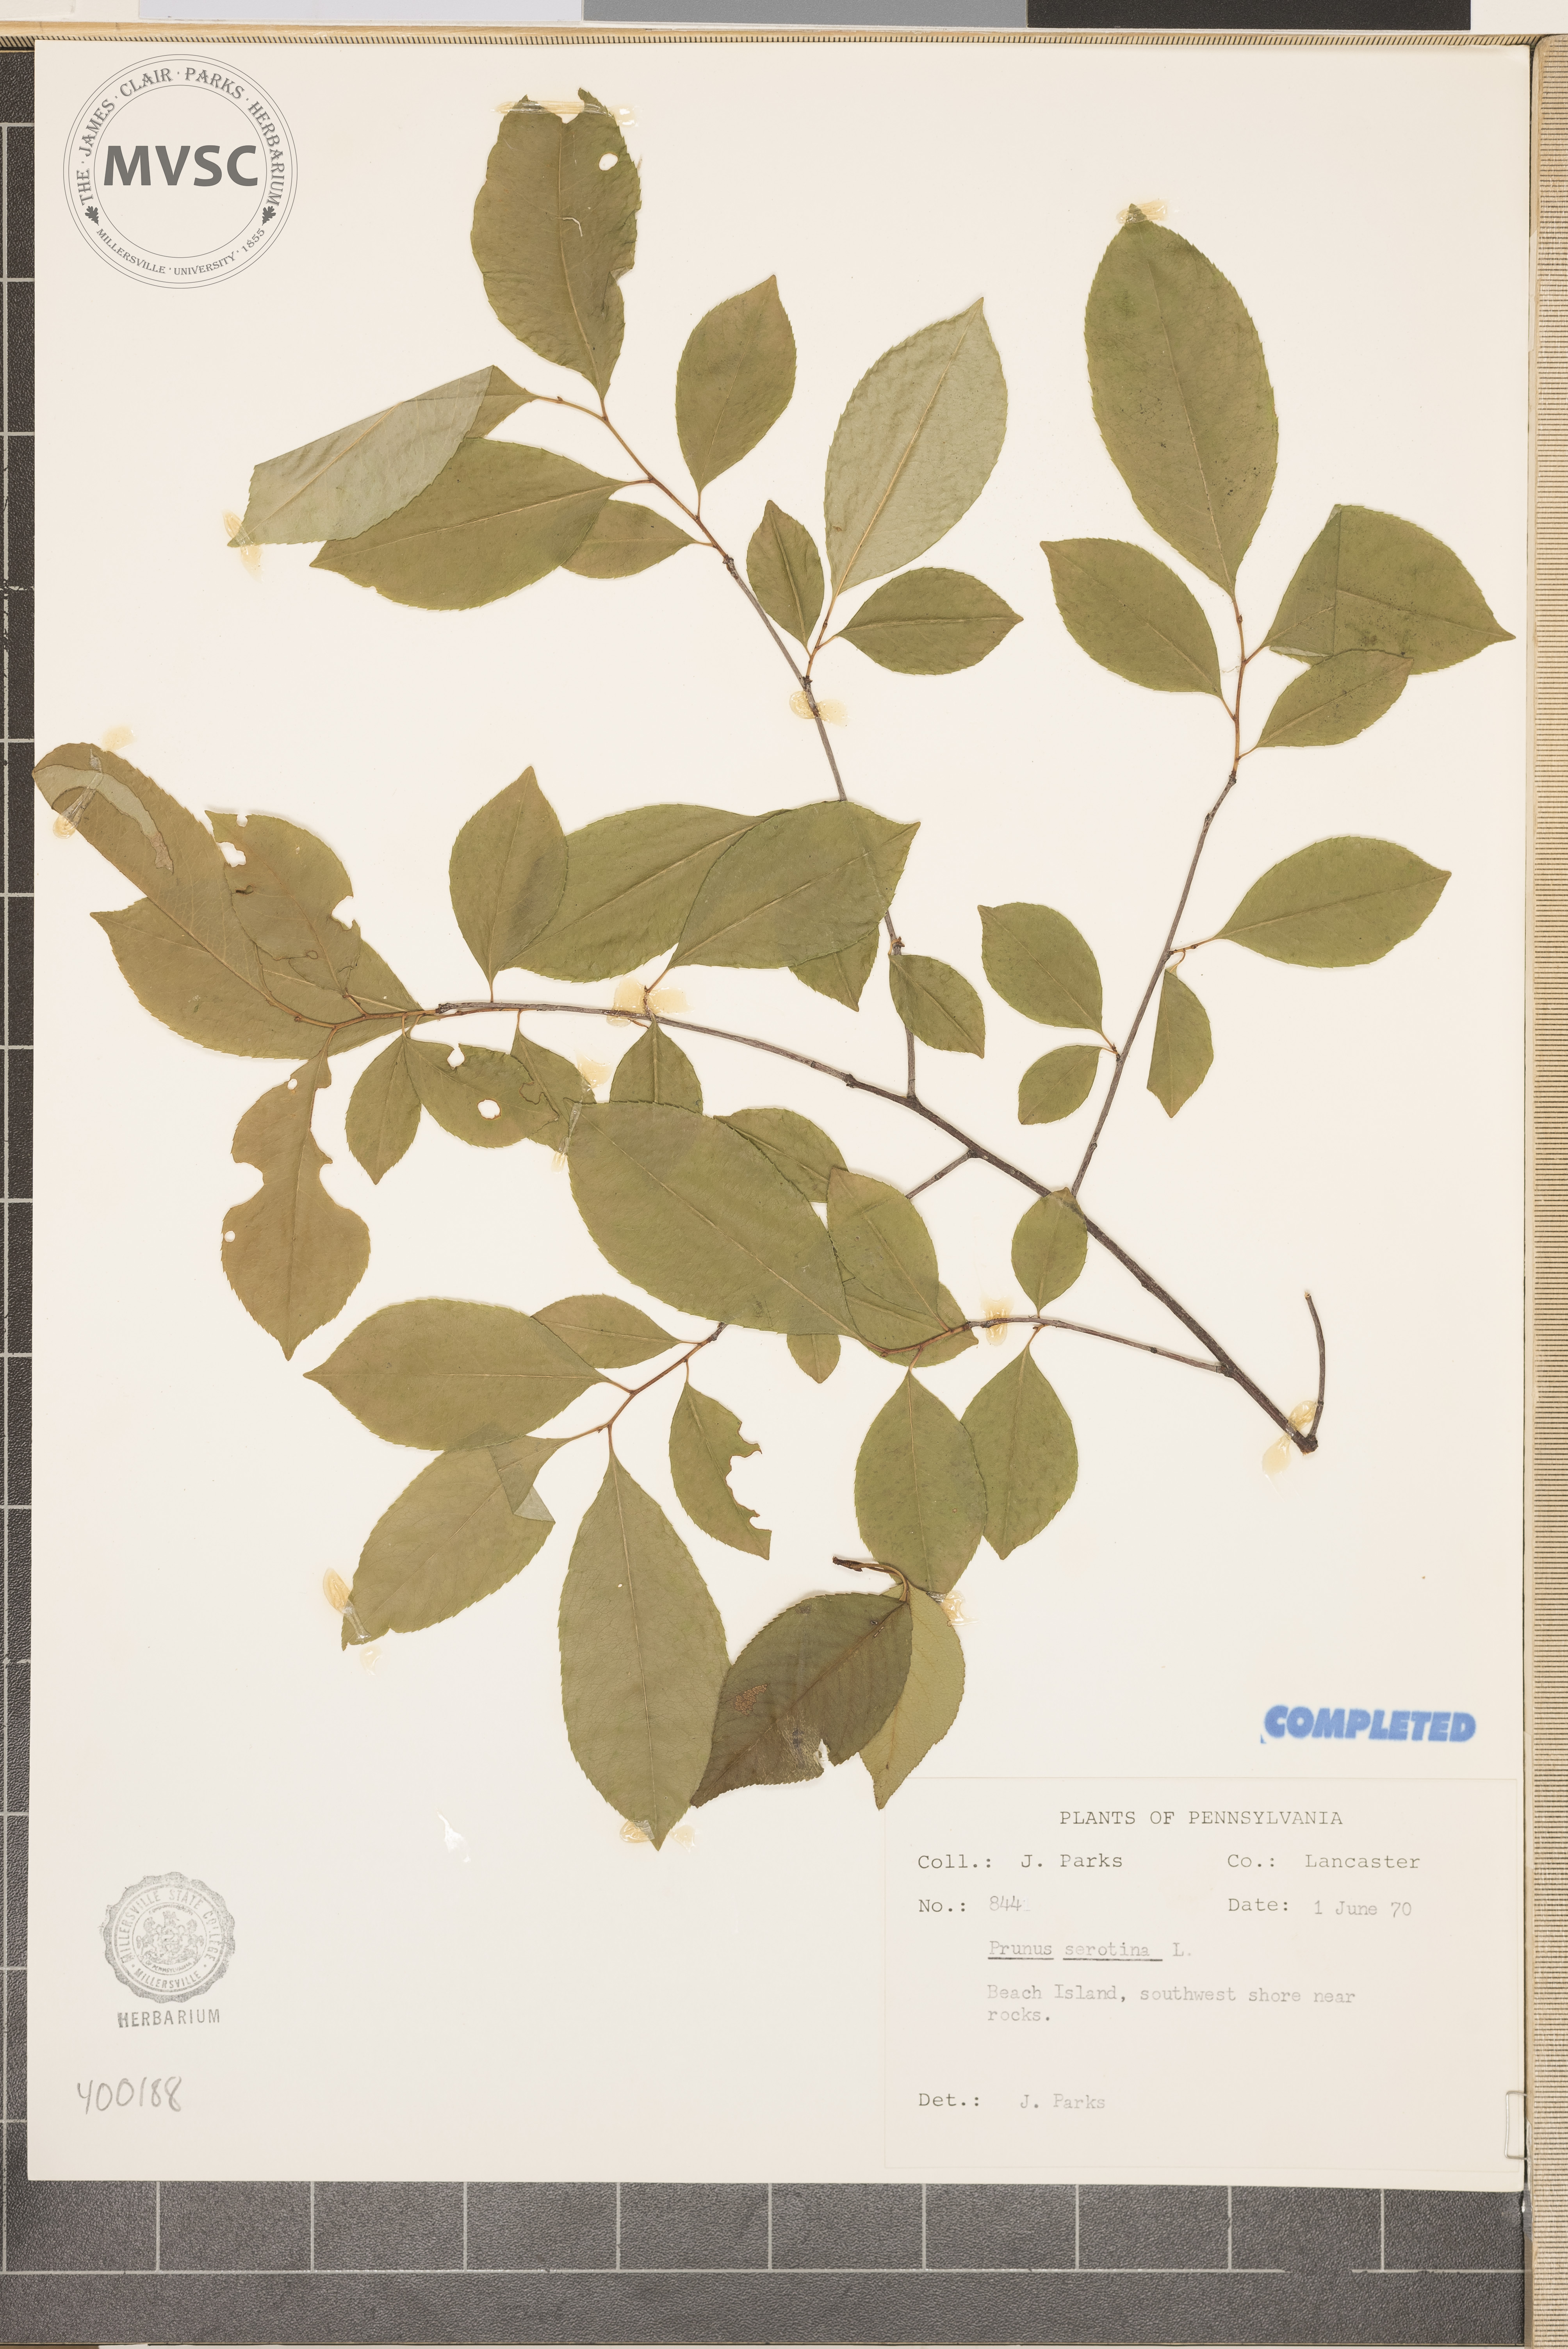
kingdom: Plantae
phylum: Tracheophyta
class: Magnoliopsida
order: Rosales
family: Rosaceae
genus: Prunus
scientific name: Prunus serotina
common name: wild black cherry
